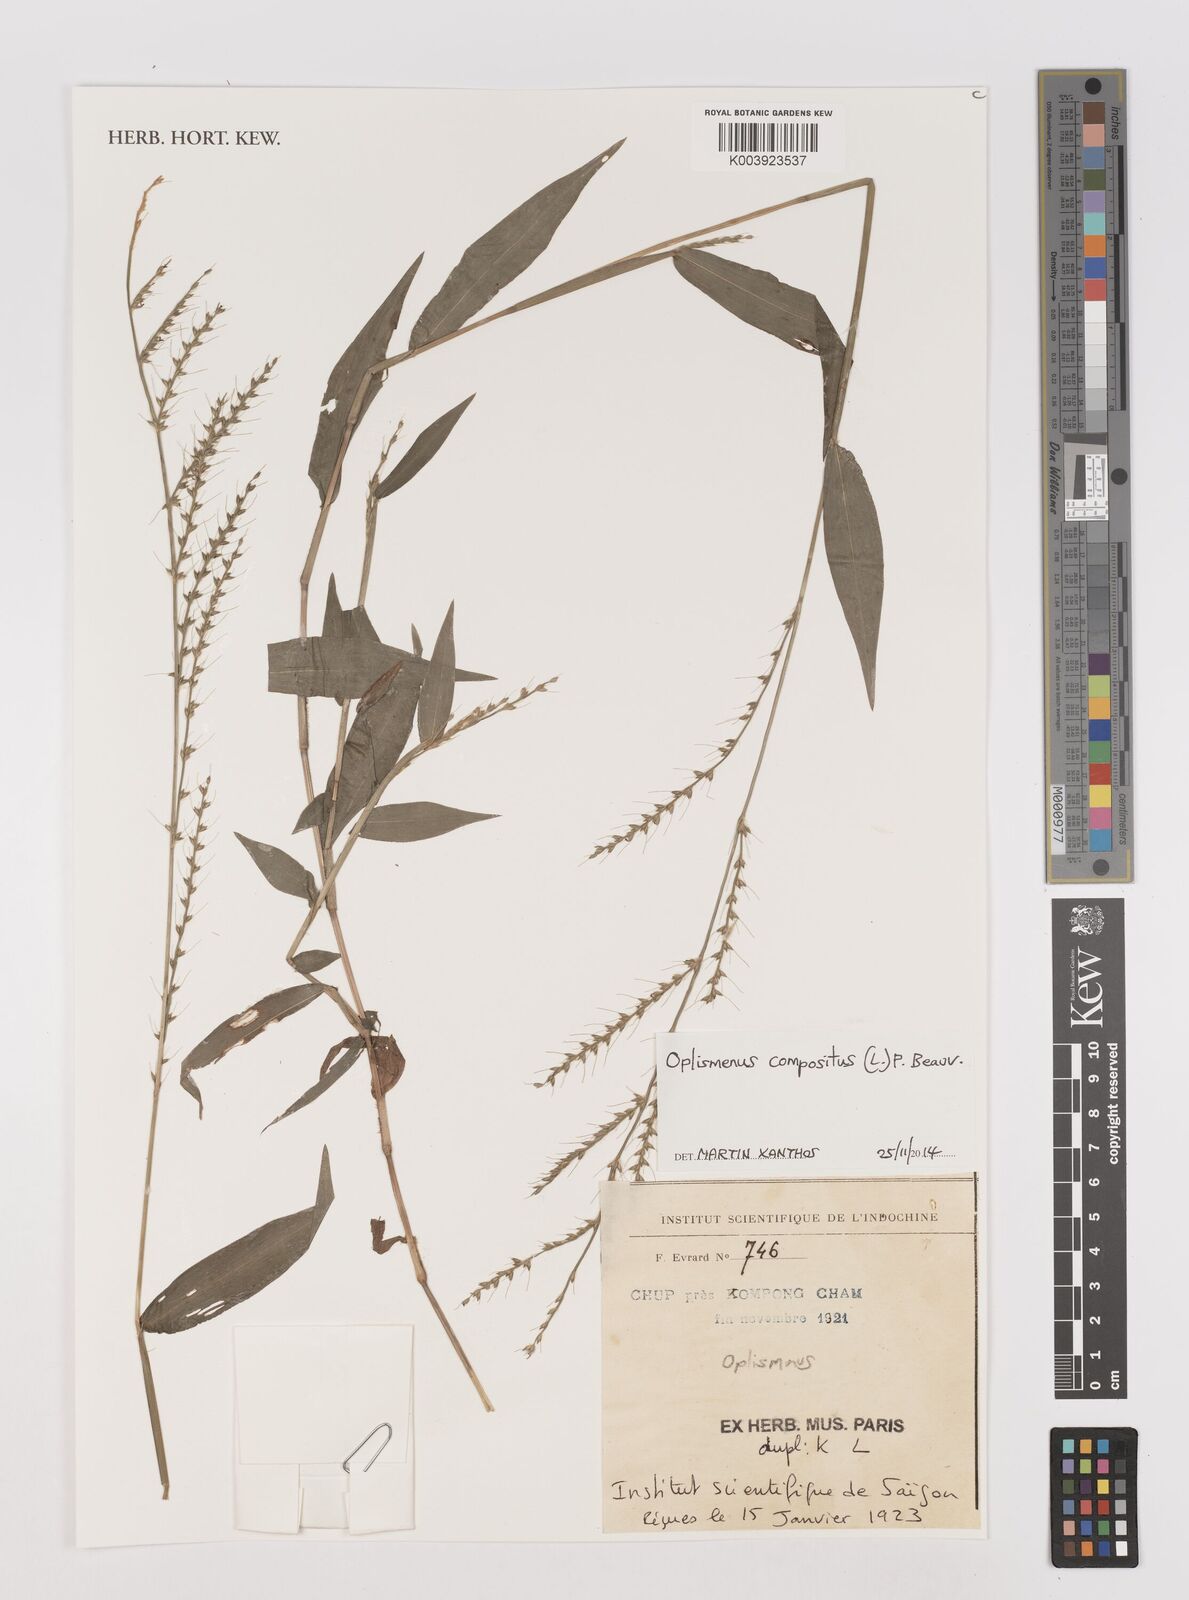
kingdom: Plantae
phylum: Tracheophyta
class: Liliopsida
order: Poales
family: Poaceae
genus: Oplismenus
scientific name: Oplismenus compositus
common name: Running mountain grass
